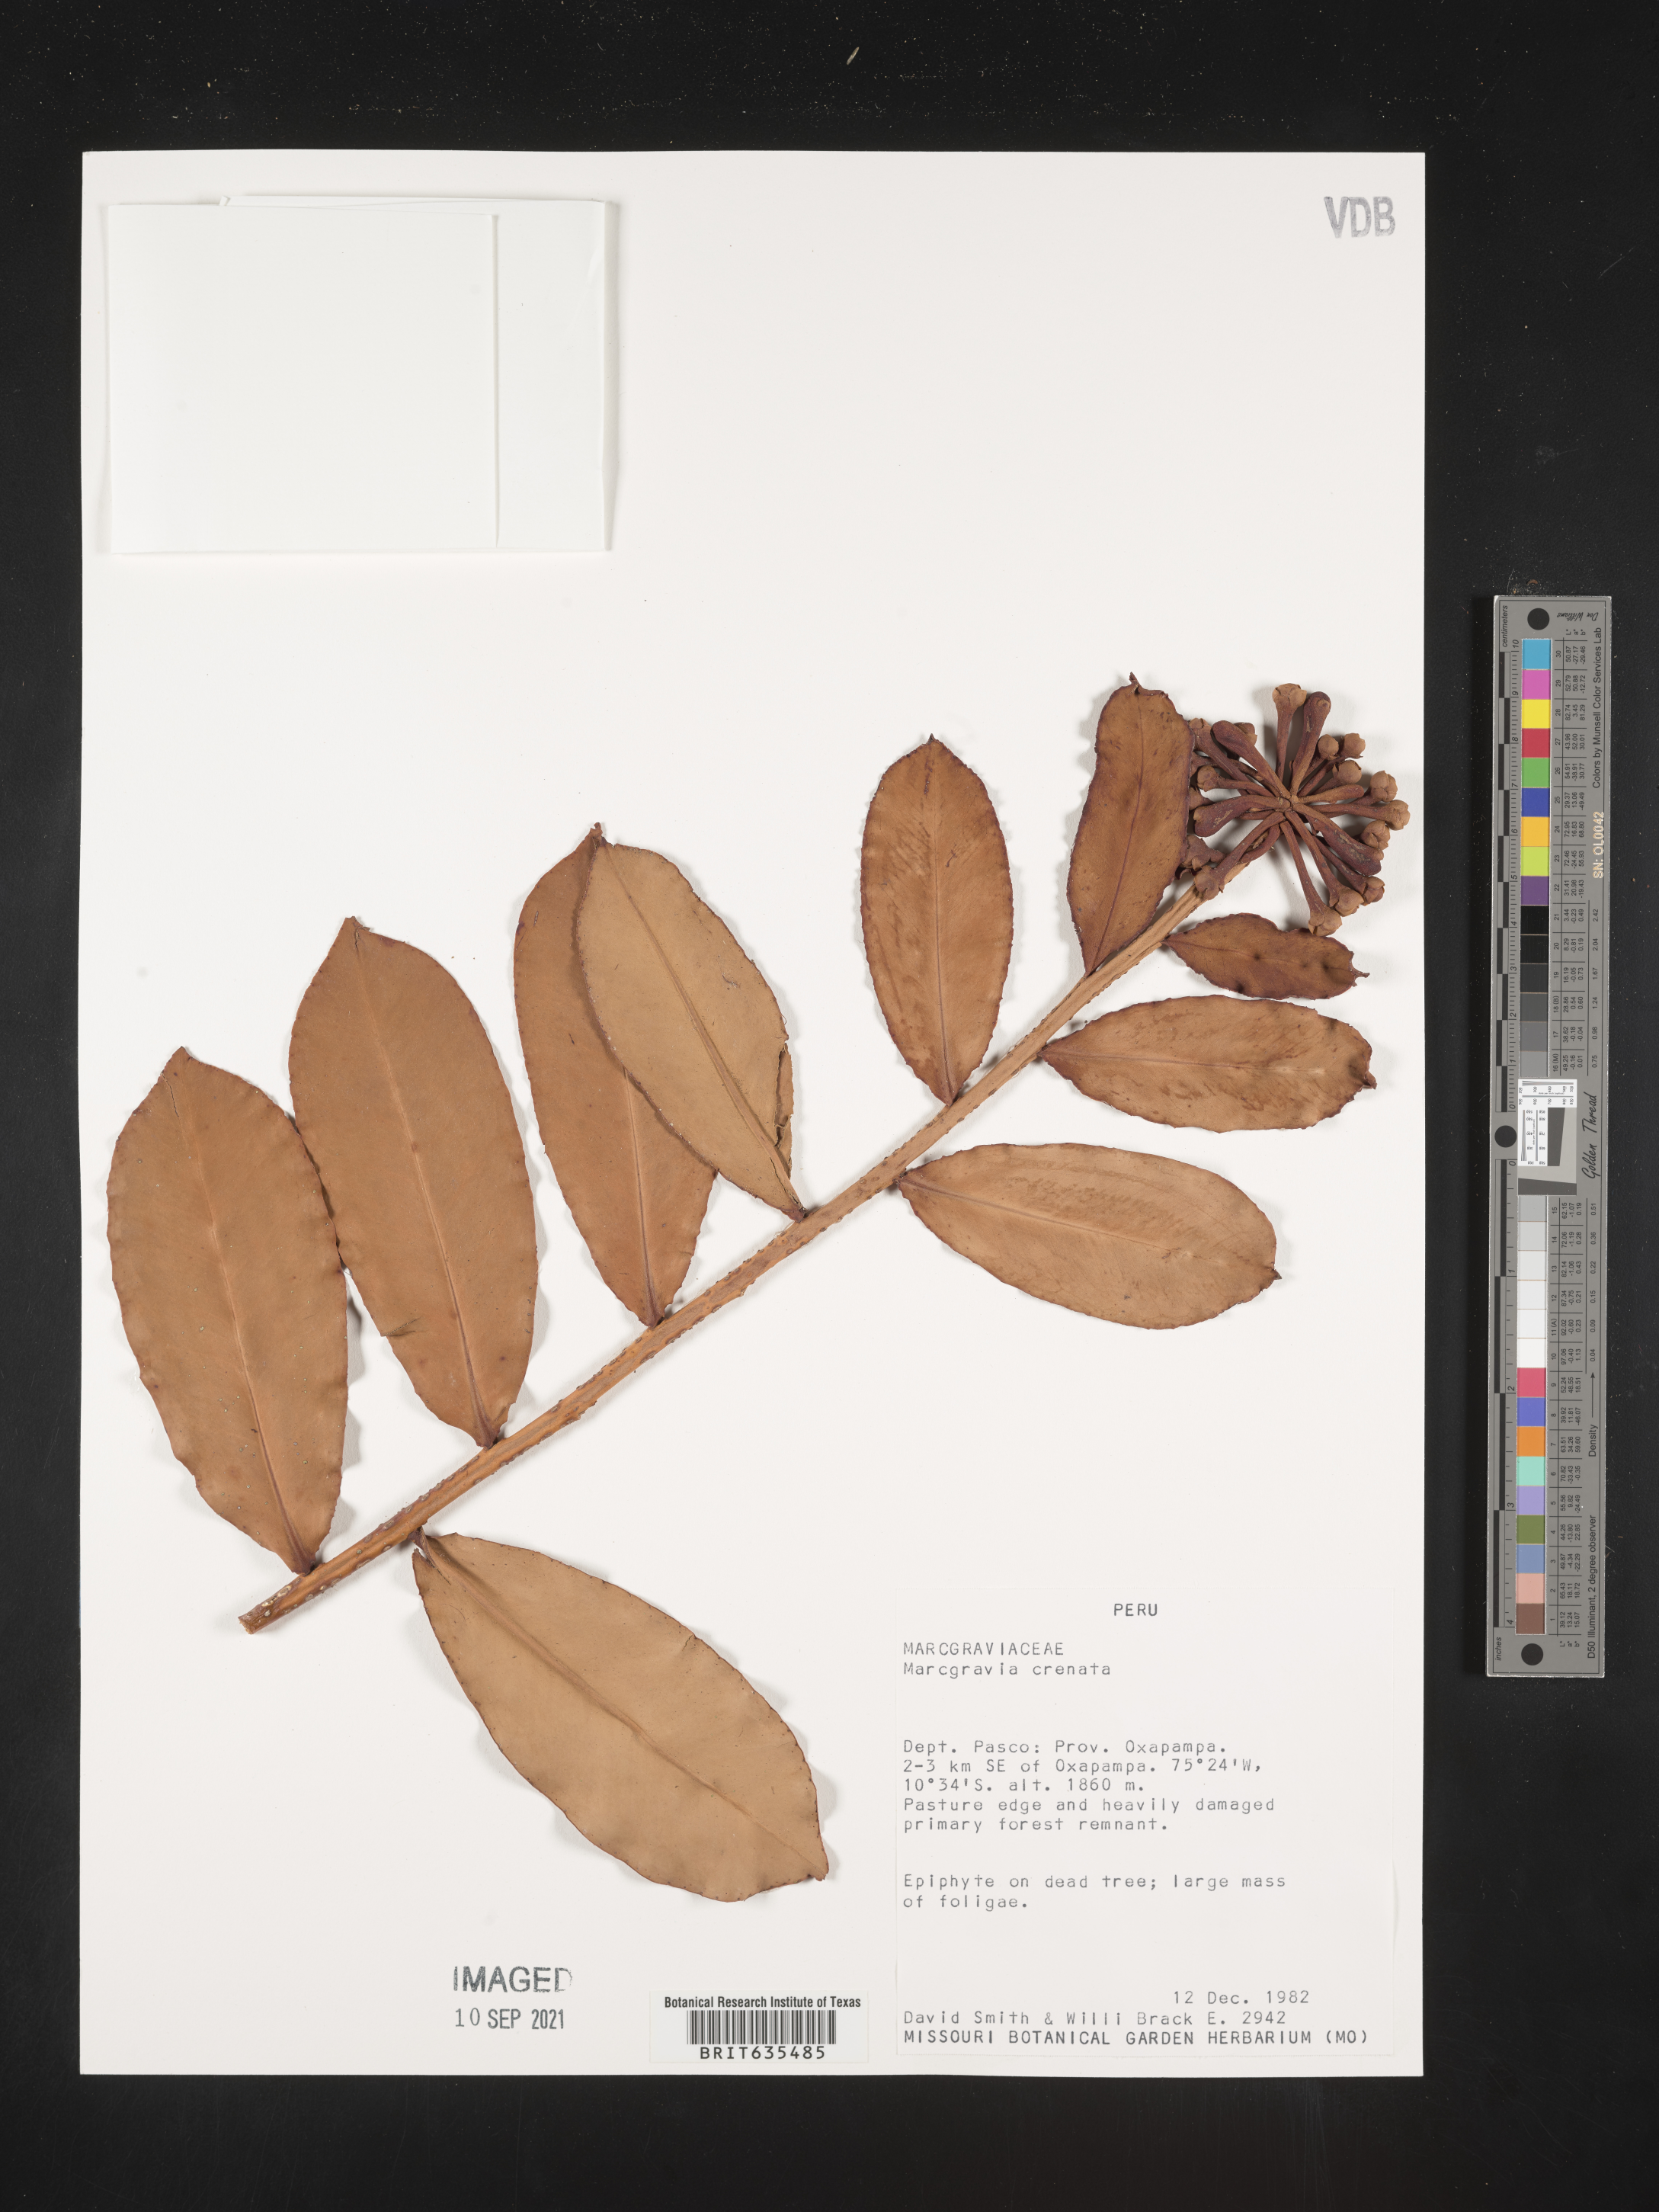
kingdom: Plantae
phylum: Tracheophyta
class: Magnoliopsida
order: Ericales
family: Marcgraviaceae
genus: Marcgravia
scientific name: Marcgravia
